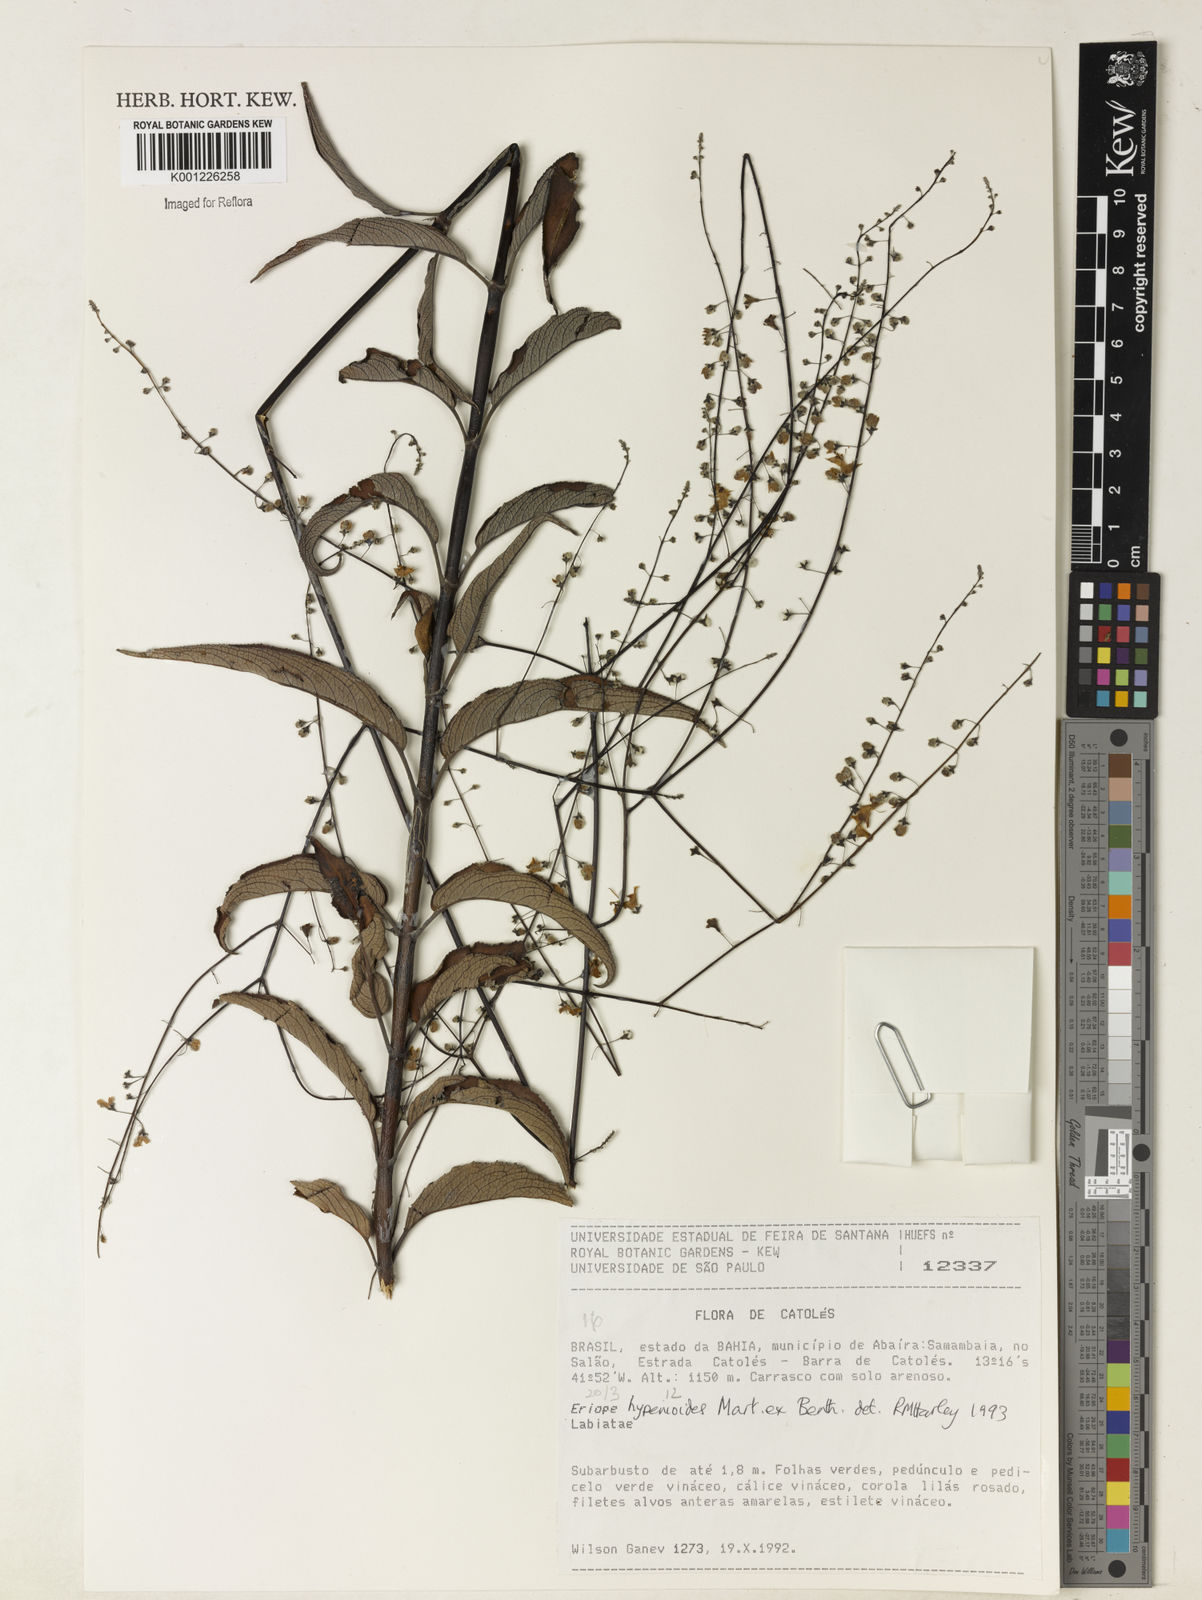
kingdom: Plantae
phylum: Tracheophyta
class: Magnoliopsida
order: Lamiales
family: Lamiaceae
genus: Eriope
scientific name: Eriope hypenioides
